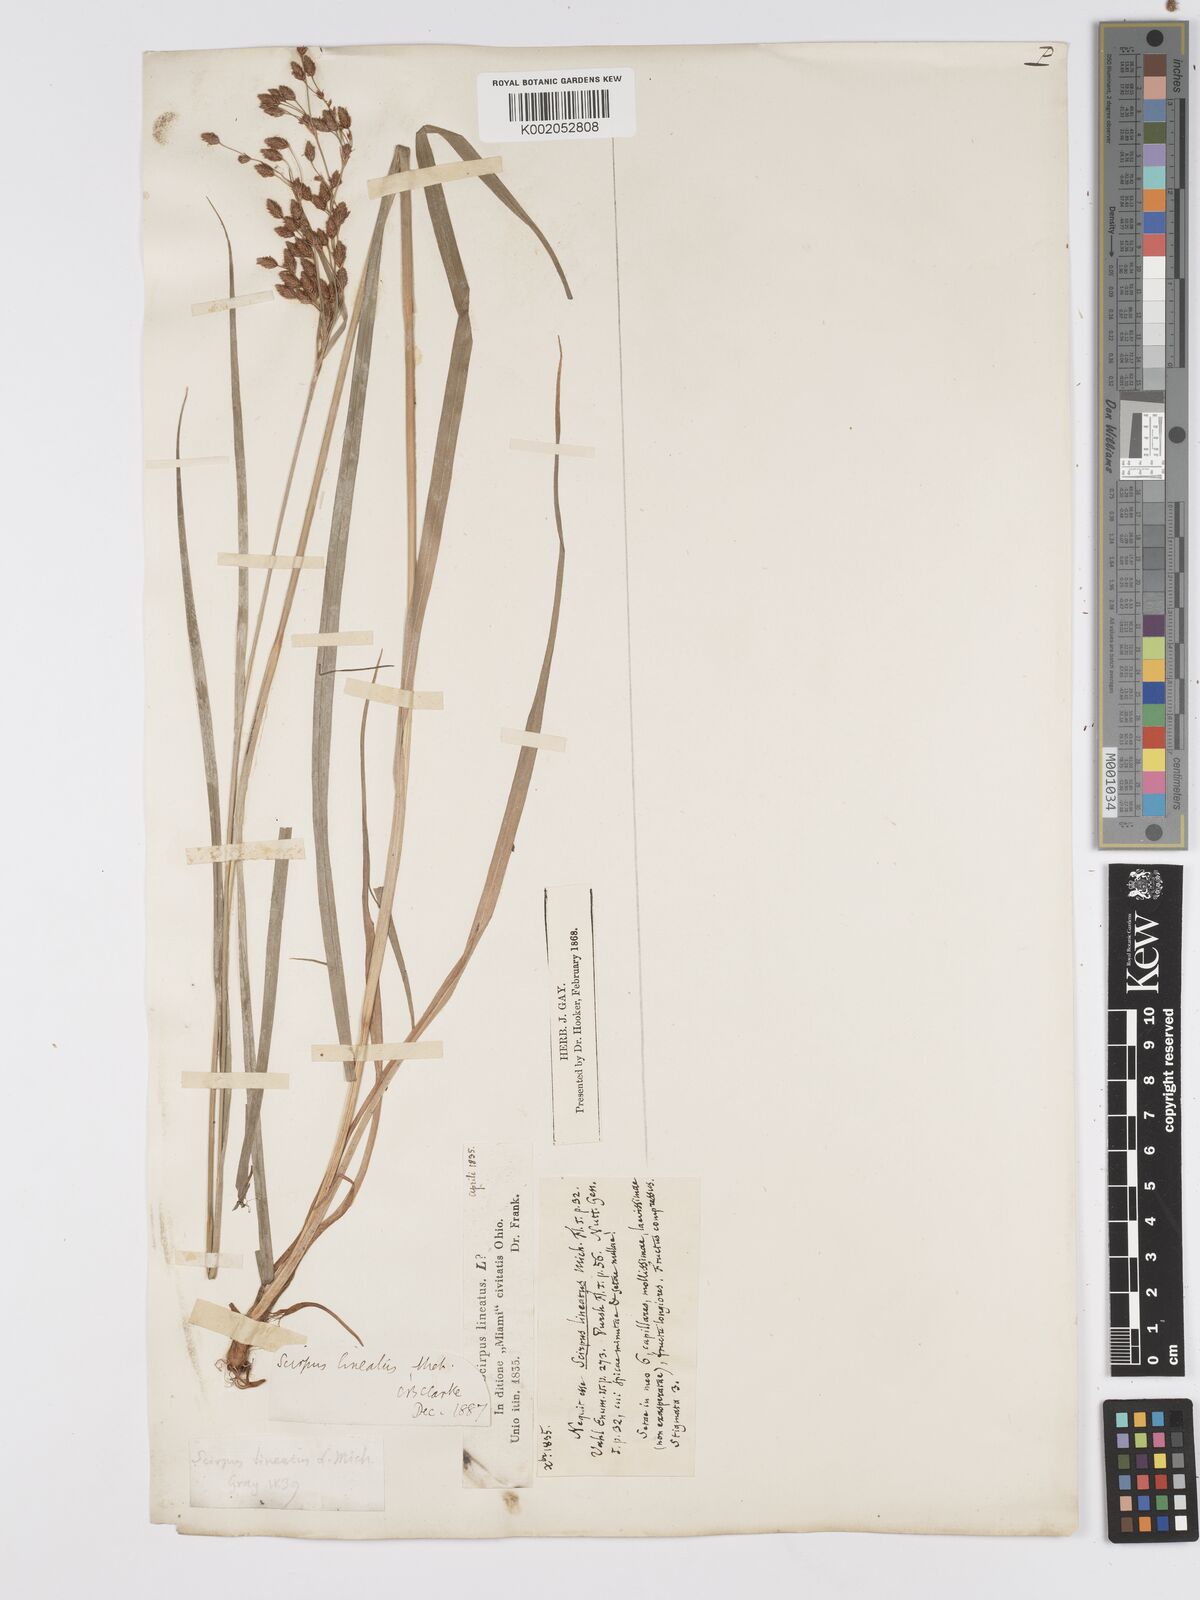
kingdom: Plantae
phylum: Tracheophyta
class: Liliopsida
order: Poales
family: Cyperaceae
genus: Scirpus
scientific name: Scirpus lineatus
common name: Drooping bulrush
